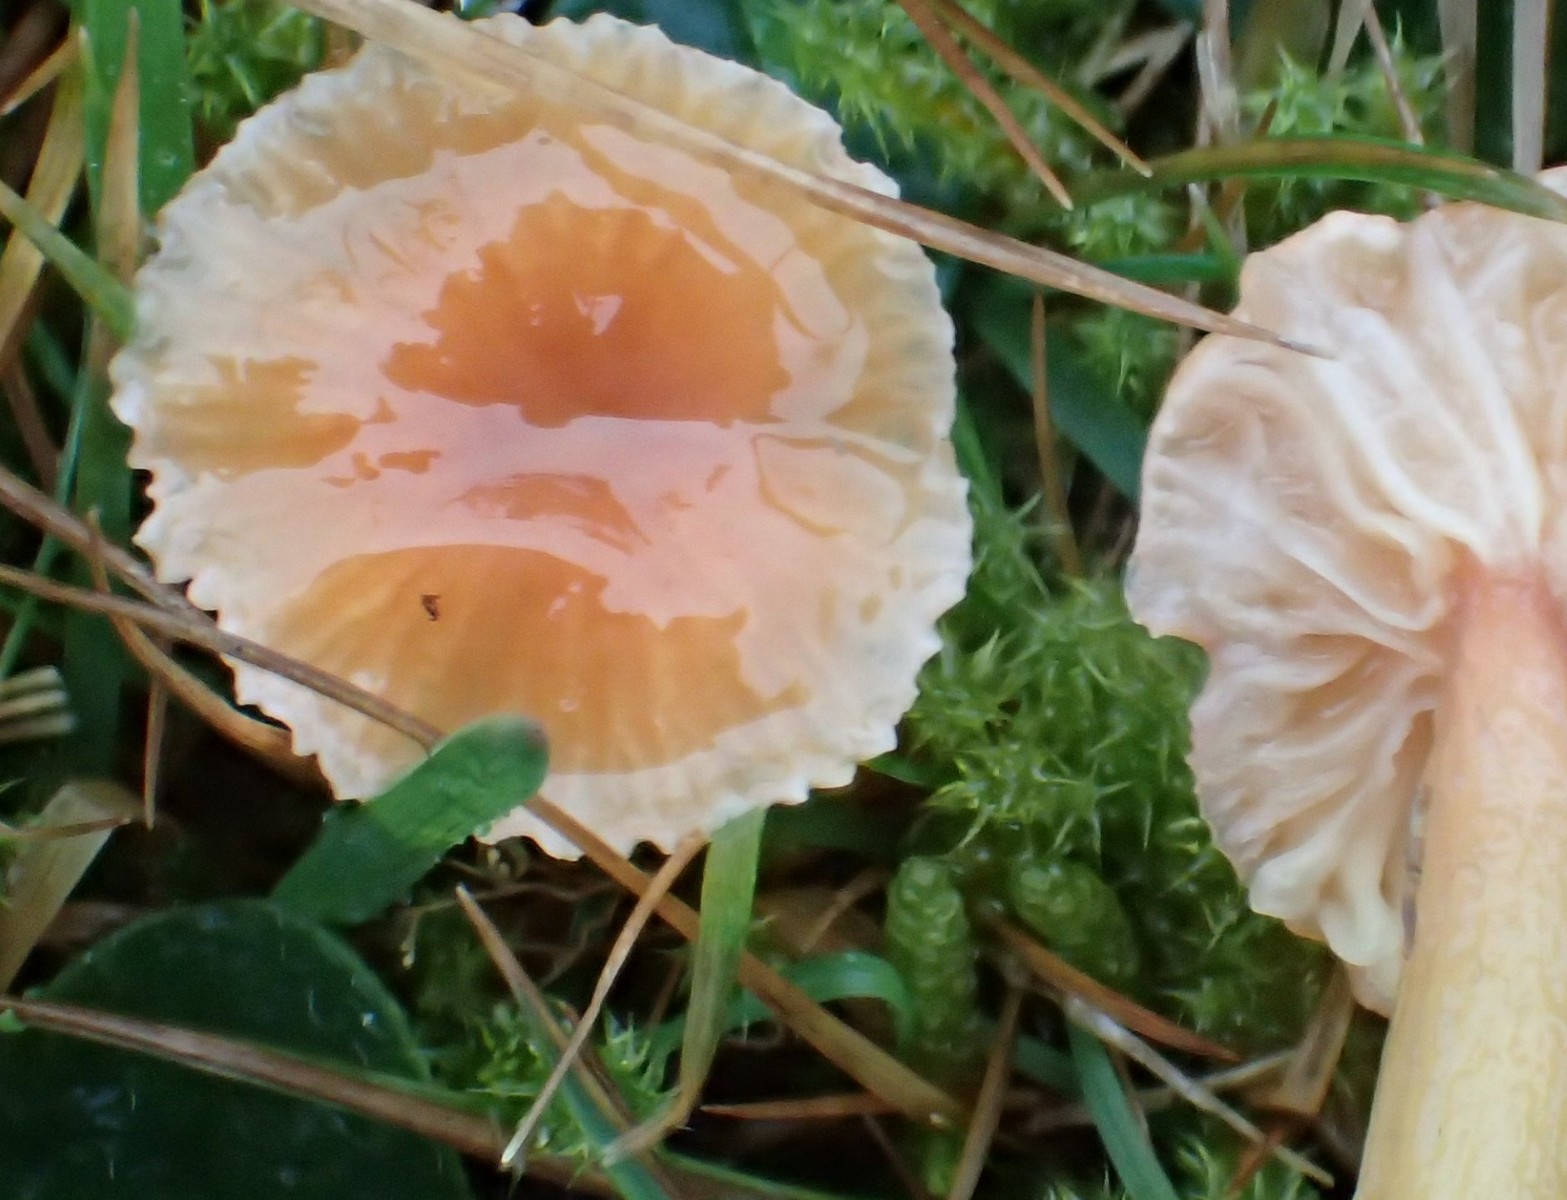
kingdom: Fungi
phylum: Basidiomycota
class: Agaricomycetes
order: Agaricales
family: Hygrophoraceae
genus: Gliophorus
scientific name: Gliophorus laetus
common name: brusk-vokshat
